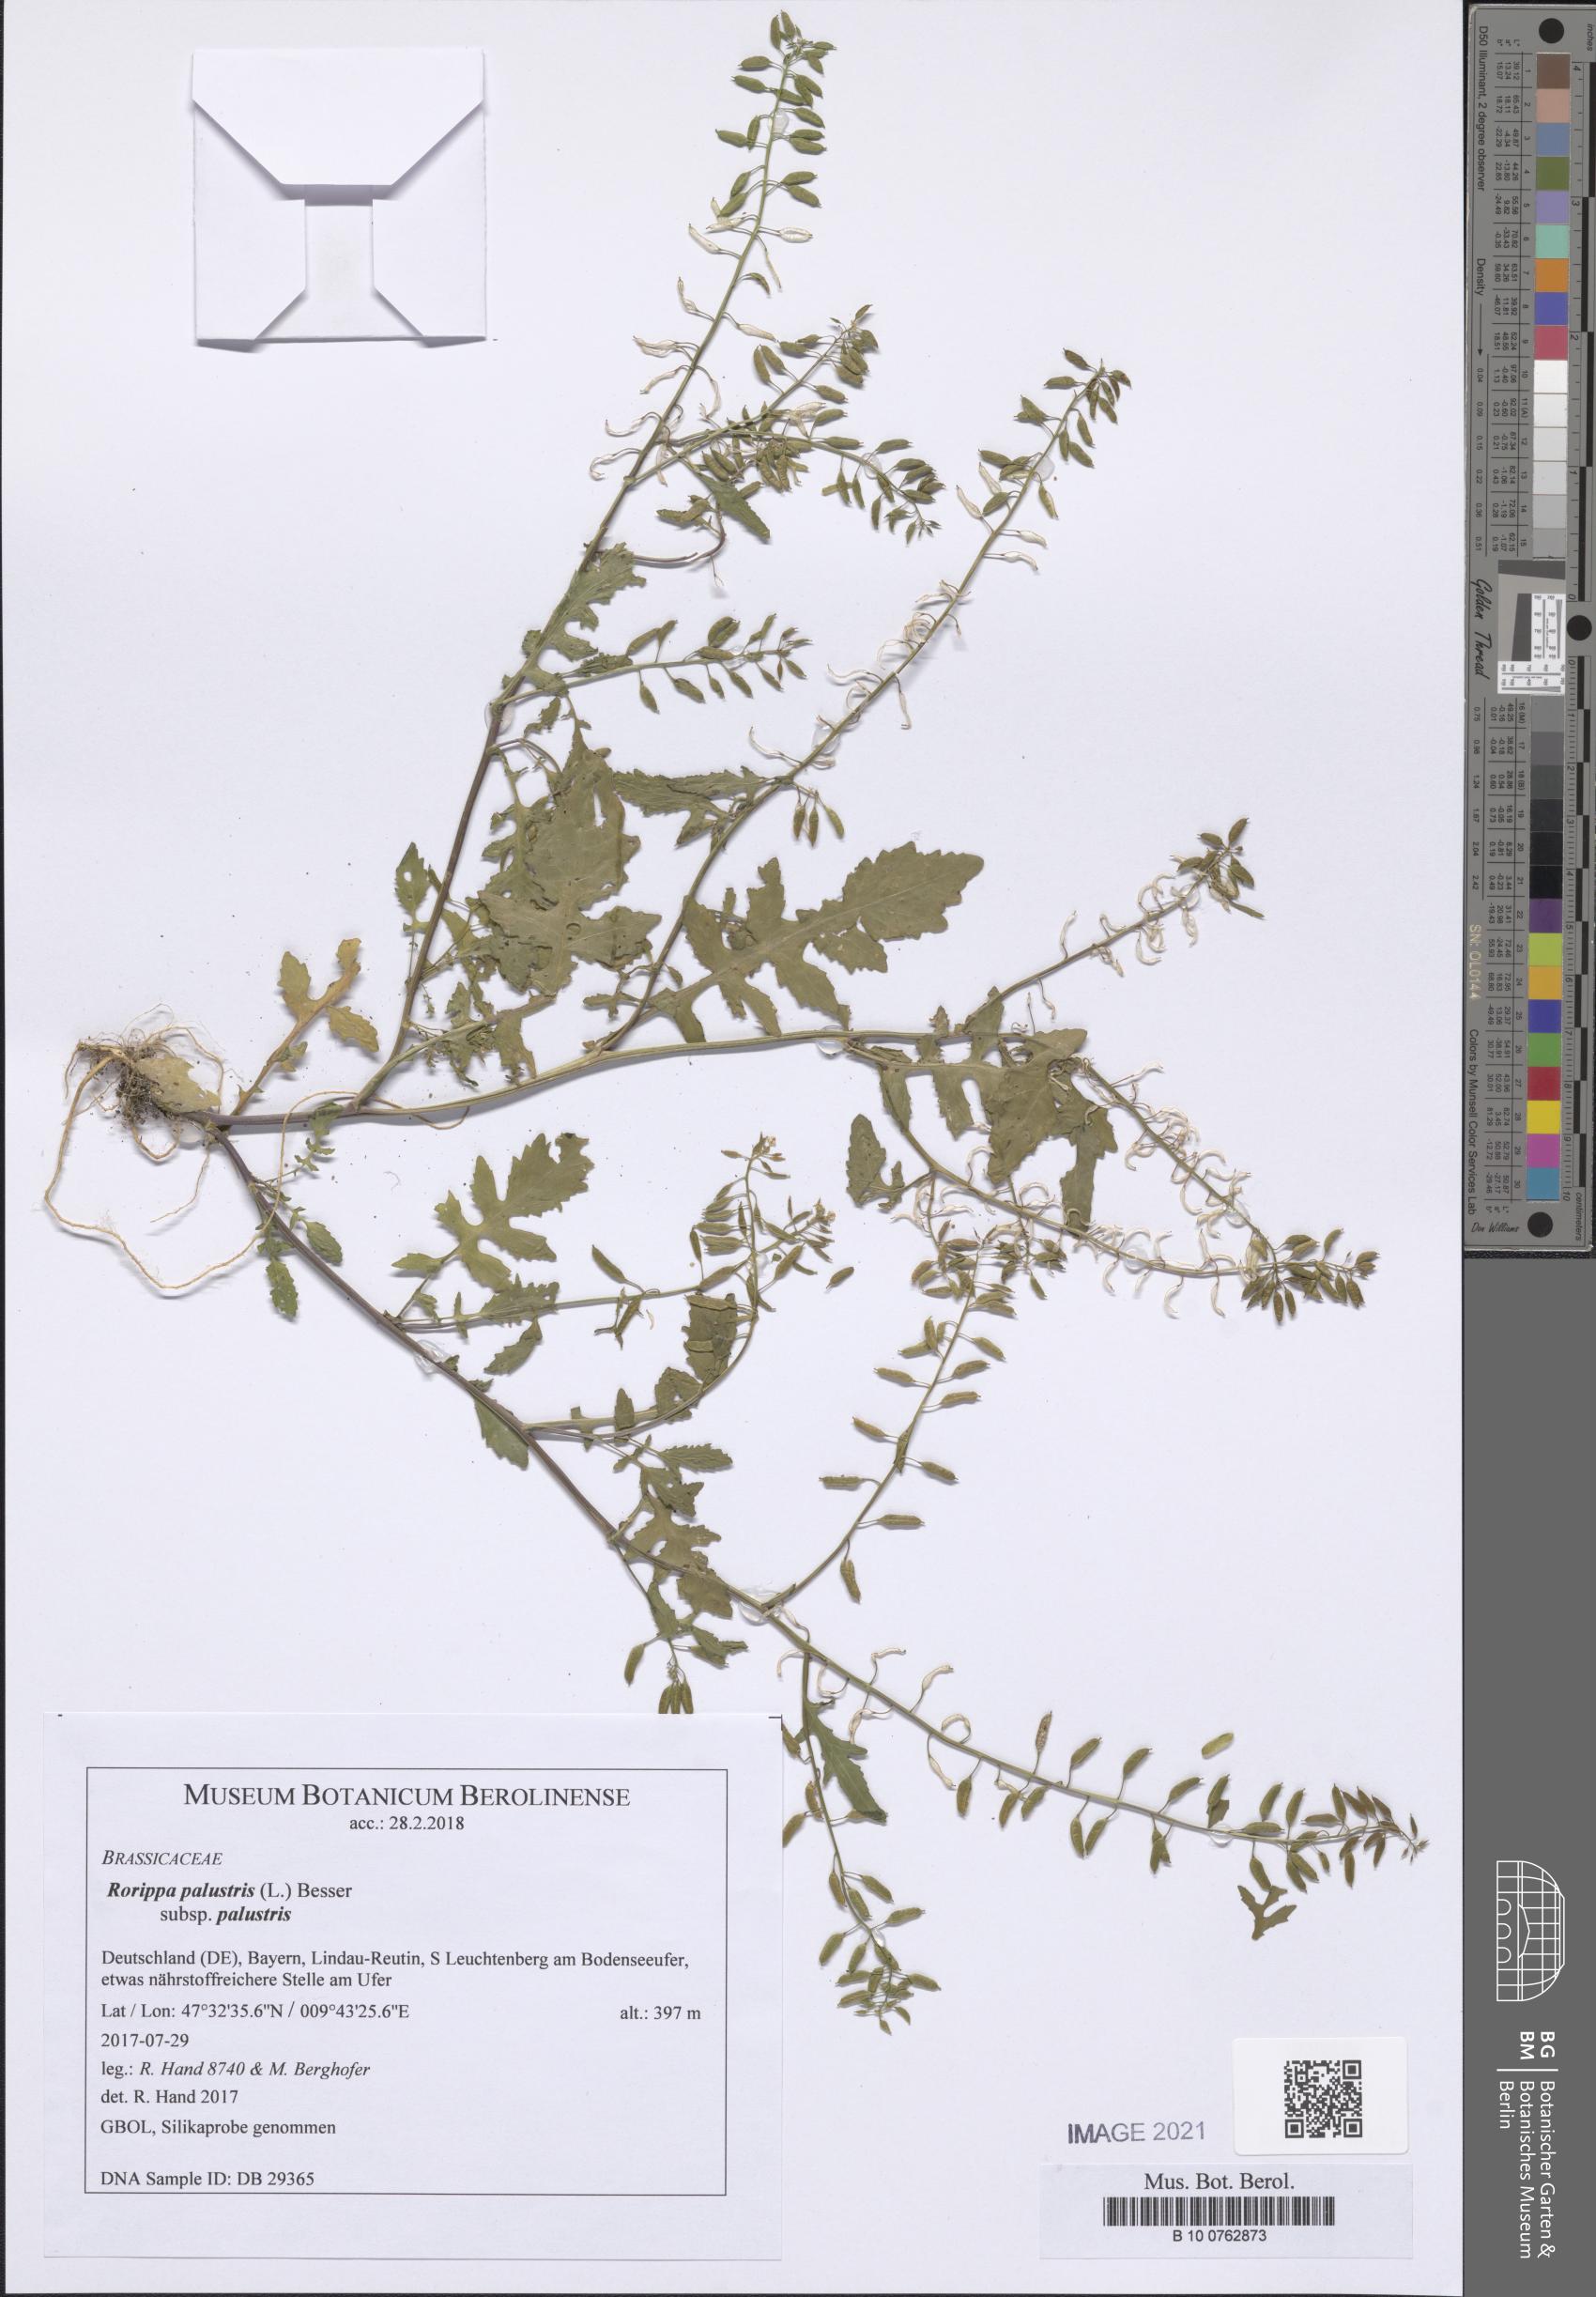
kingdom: Plantae
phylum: Tracheophyta
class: Magnoliopsida
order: Brassicales
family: Brassicaceae
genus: Rorippa
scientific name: Rorippa palustris
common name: Marsh yellow-cress
